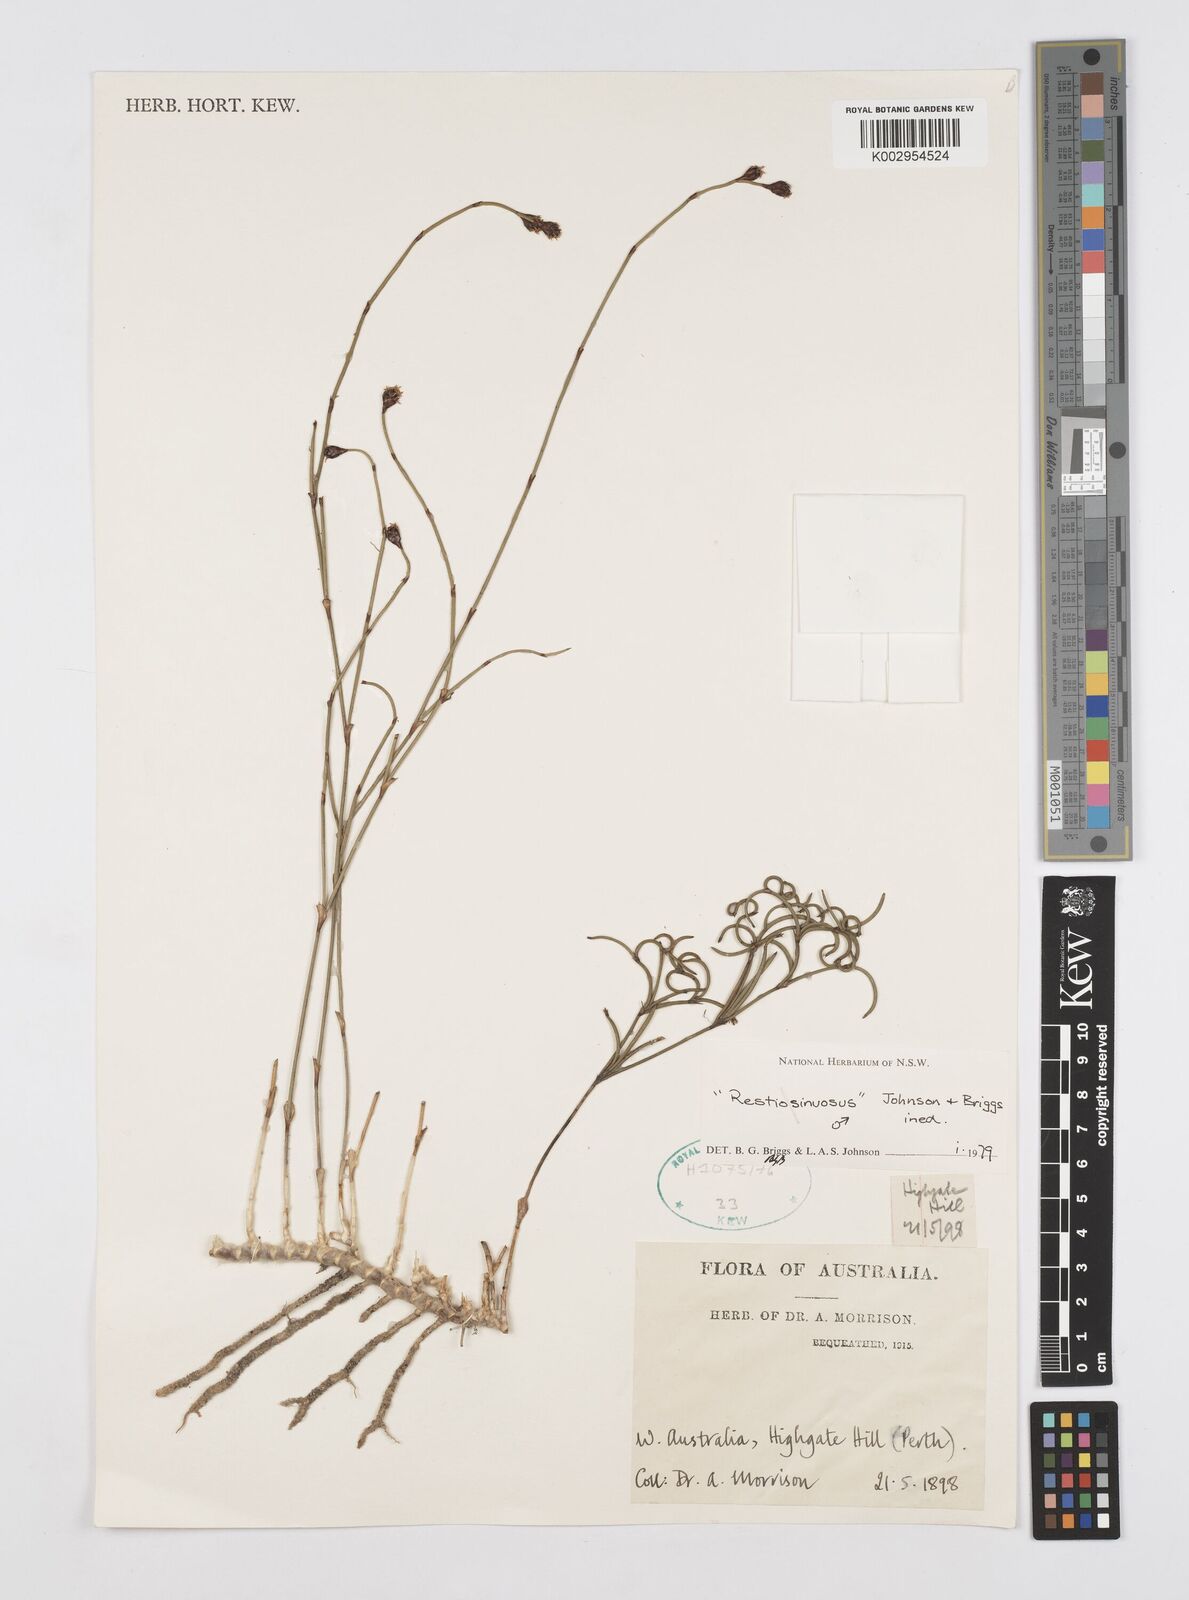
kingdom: Plantae
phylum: Tracheophyta
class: Liliopsida
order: Poales
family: Restionaceae
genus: Chordifex
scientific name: Chordifex sinuosus
